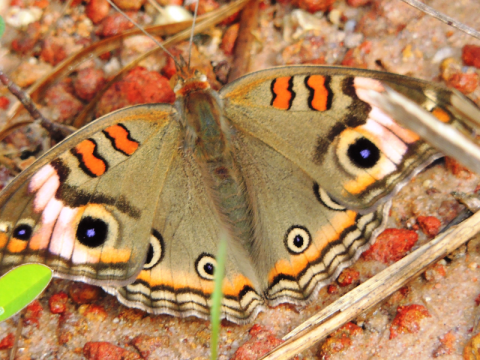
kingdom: Animalia
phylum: Arthropoda
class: Insecta
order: Lepidoptera
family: Nymphalidae
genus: Junonia
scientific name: Junonia evarete
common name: Mangrove Buckeye
